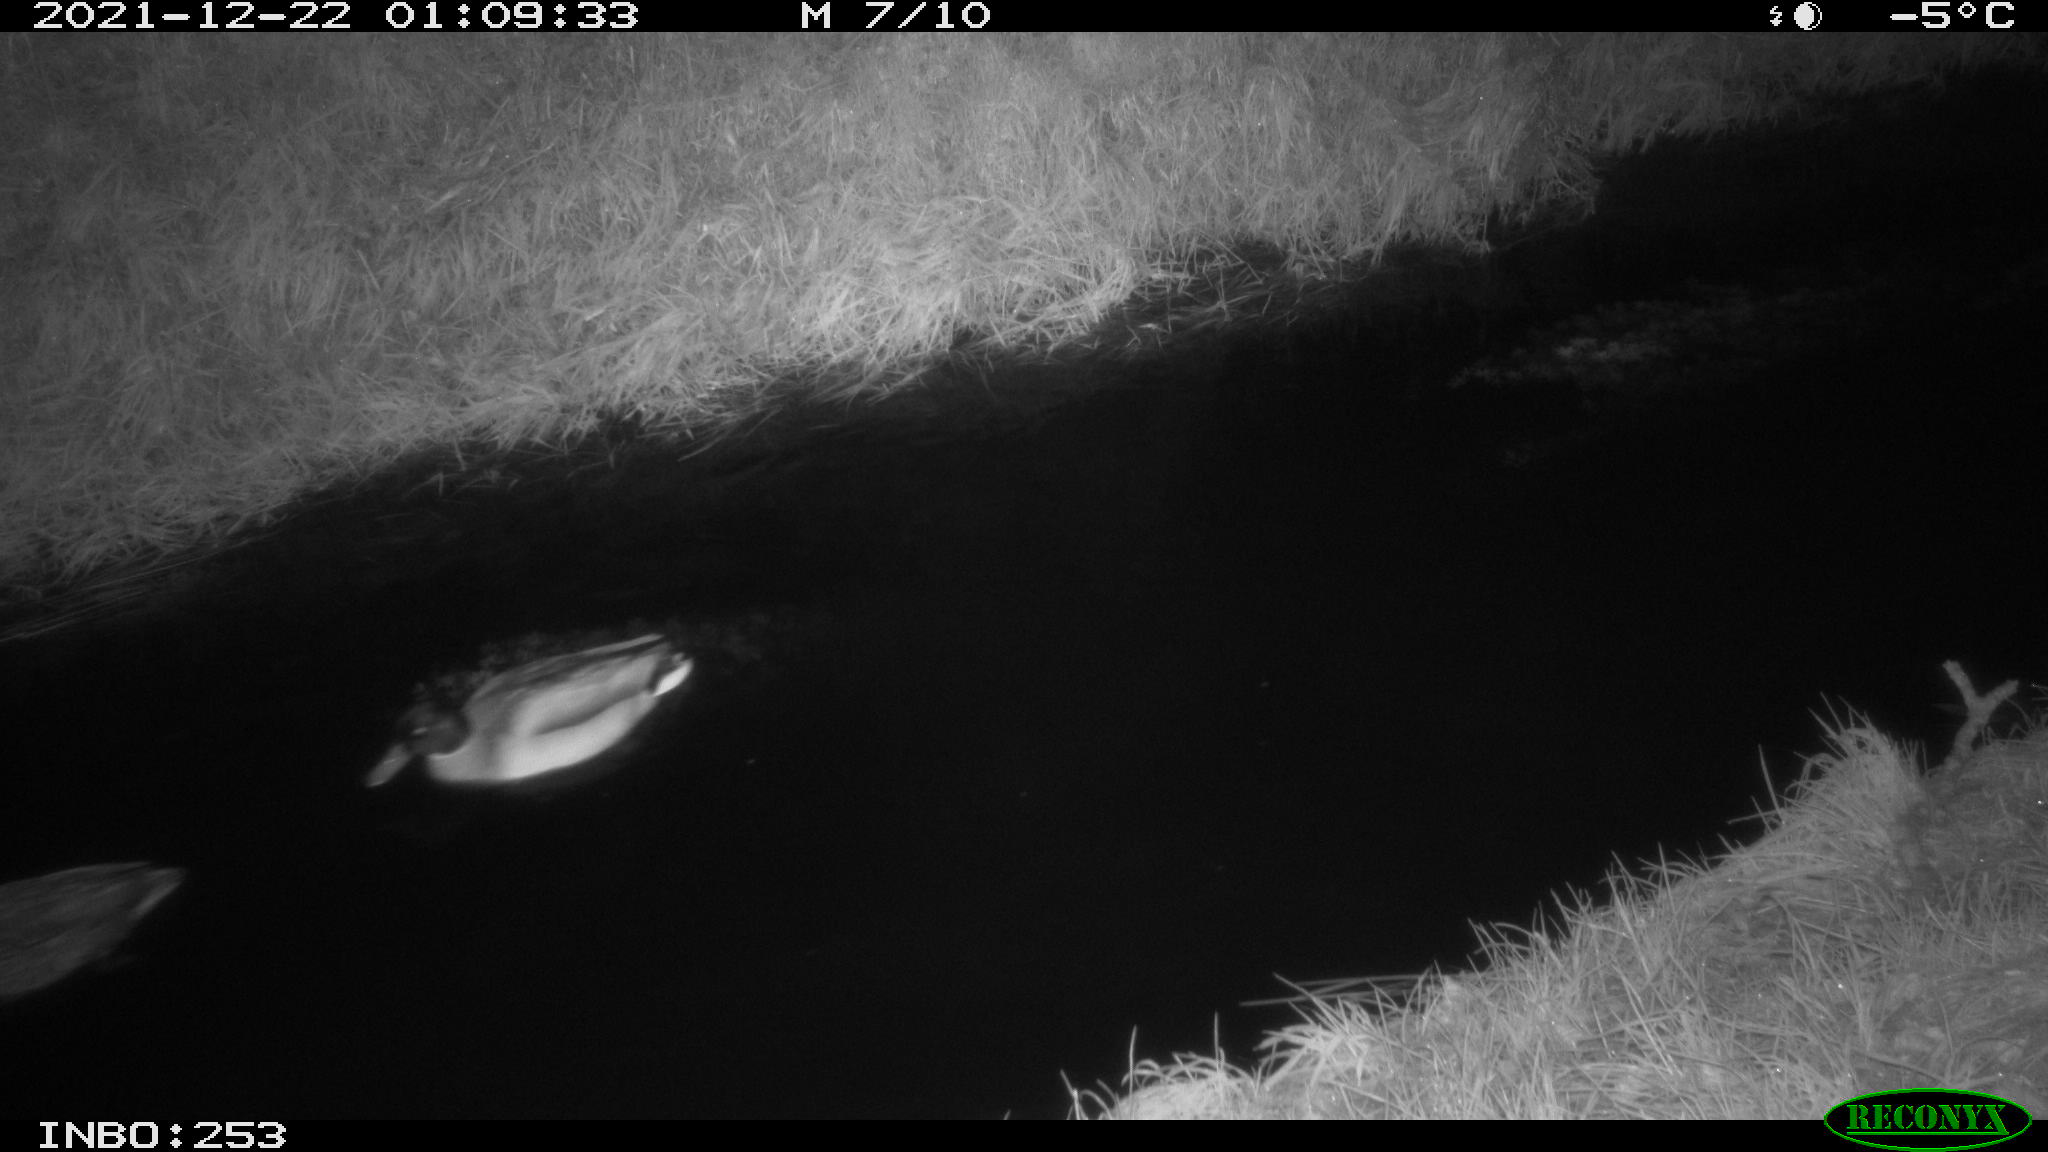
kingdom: Animalia
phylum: Chordata
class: Aves
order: Anseriformes
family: Anatidae
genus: Anas
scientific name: Anas
